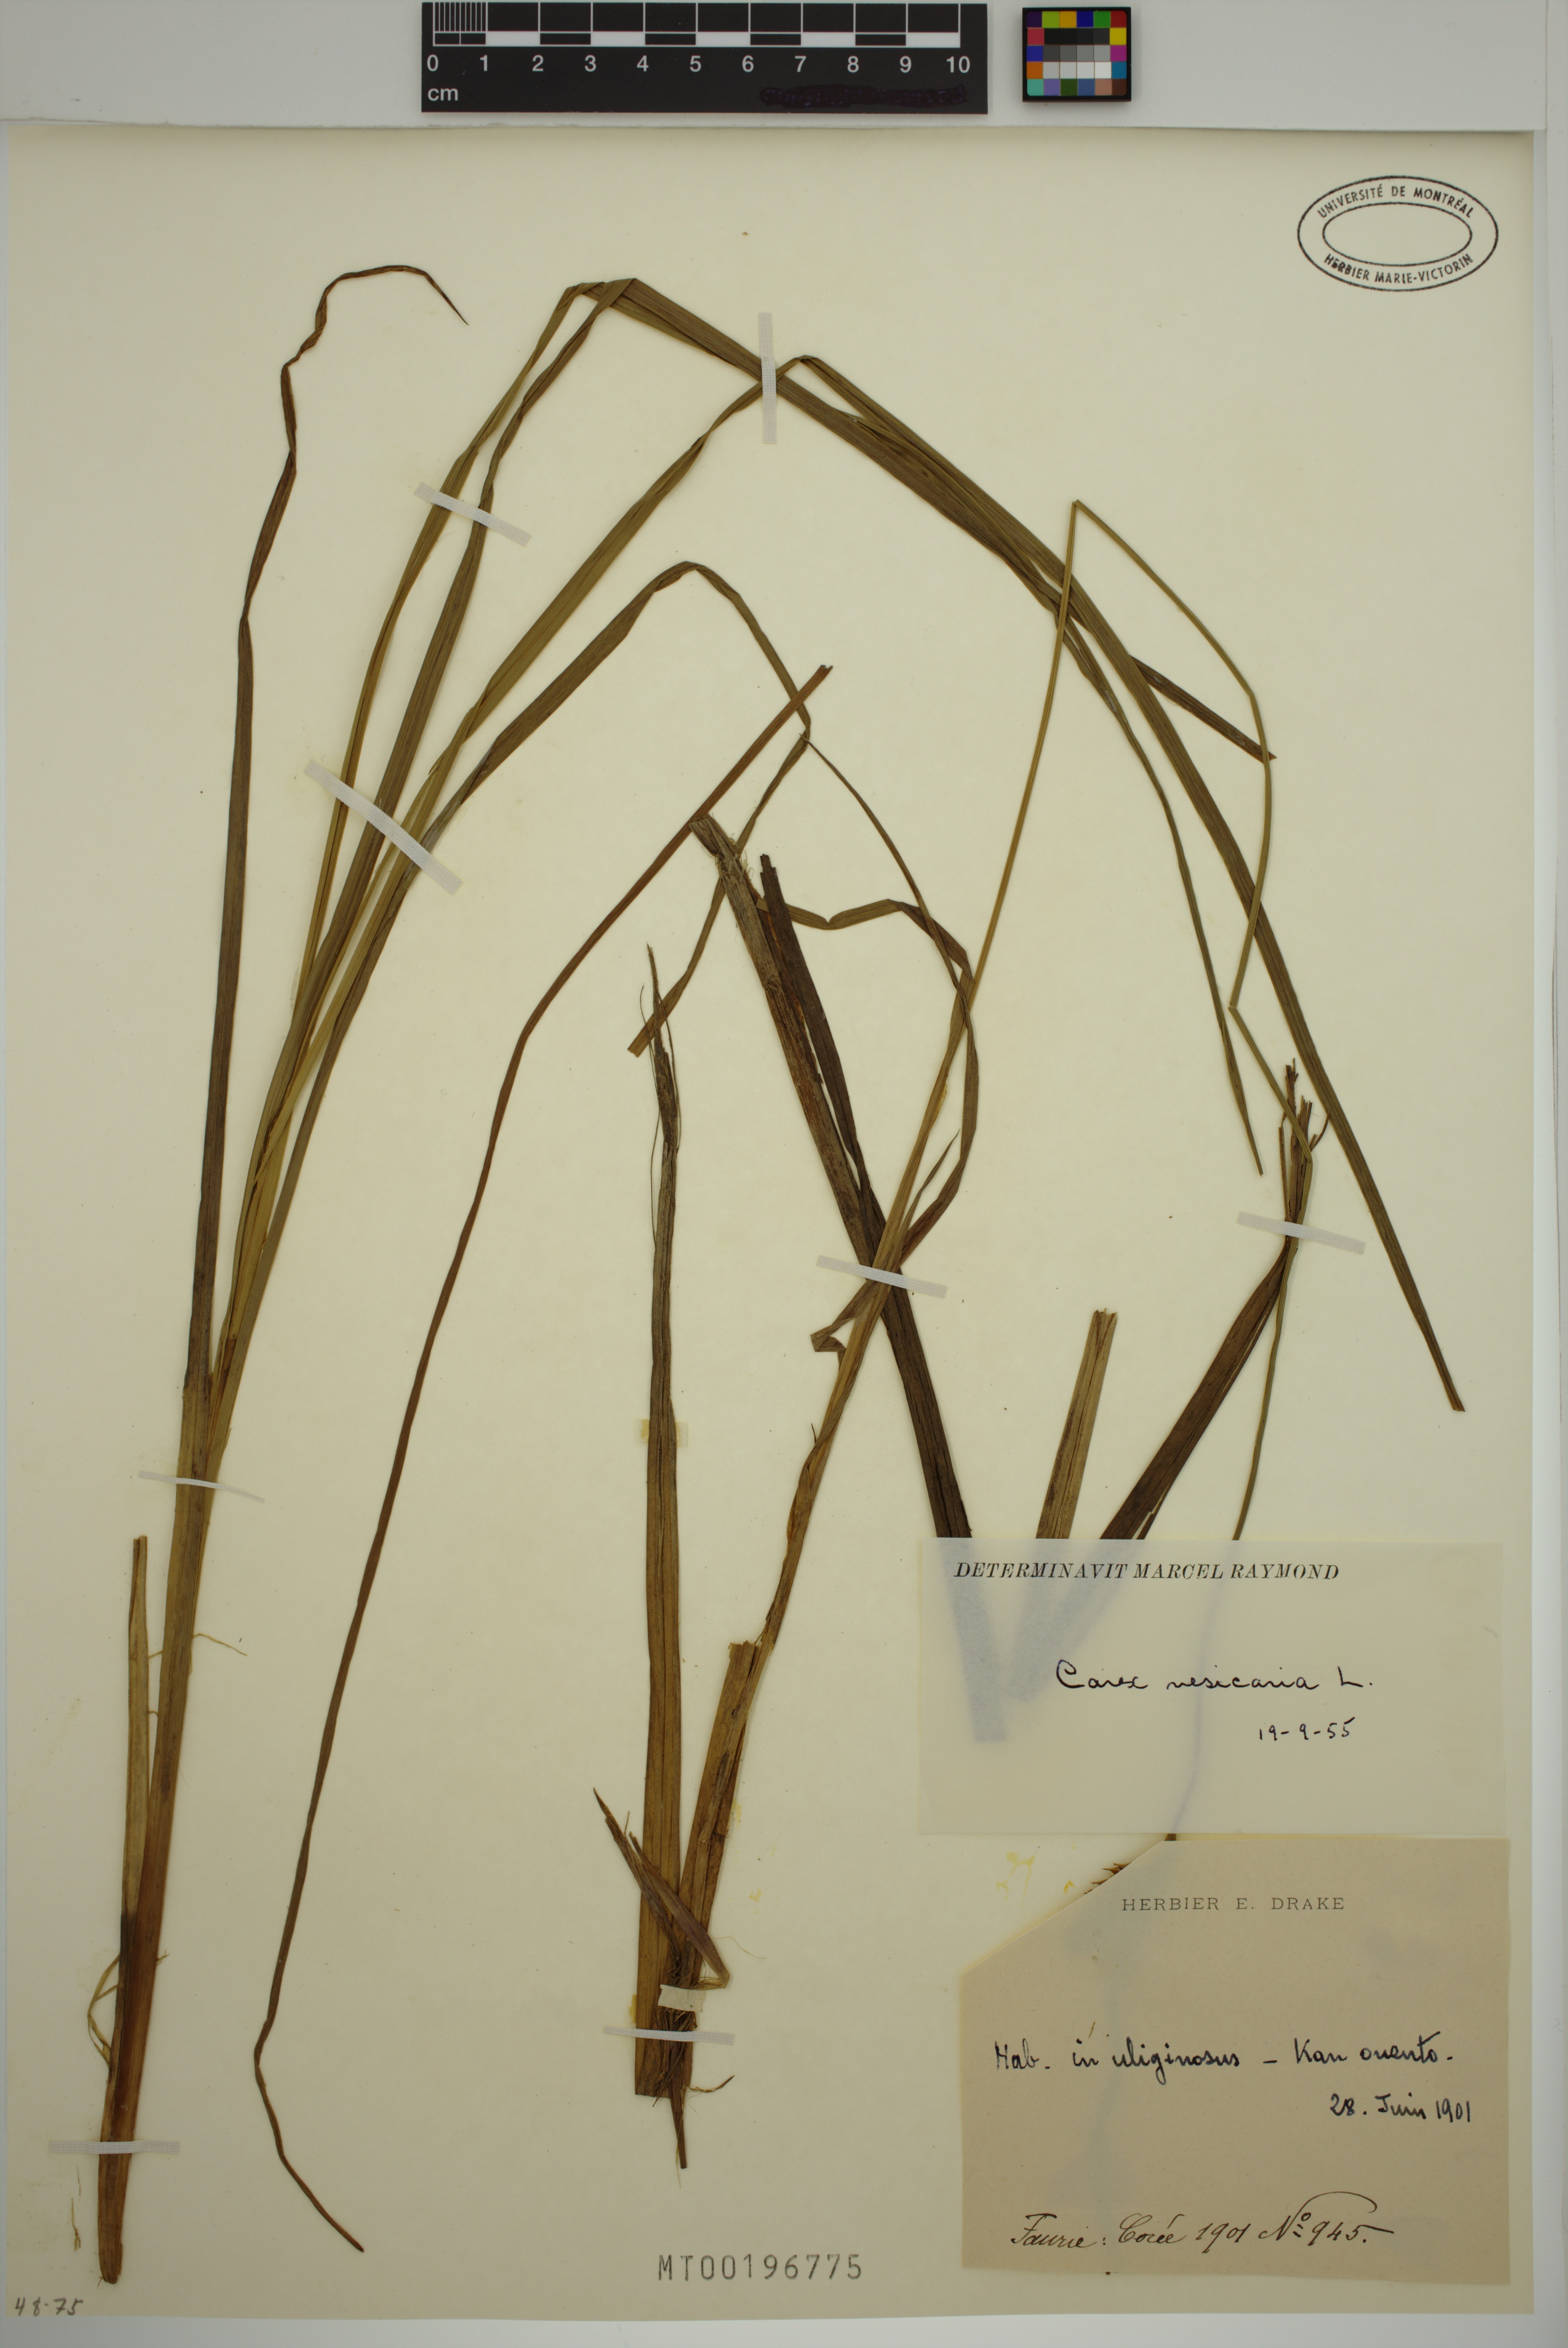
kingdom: Plantae
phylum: Tracheophyta
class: Liliopsida
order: Poales
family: Cyperaceae
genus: Carex
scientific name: Carex vesicaria
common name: Bladder-sedge
